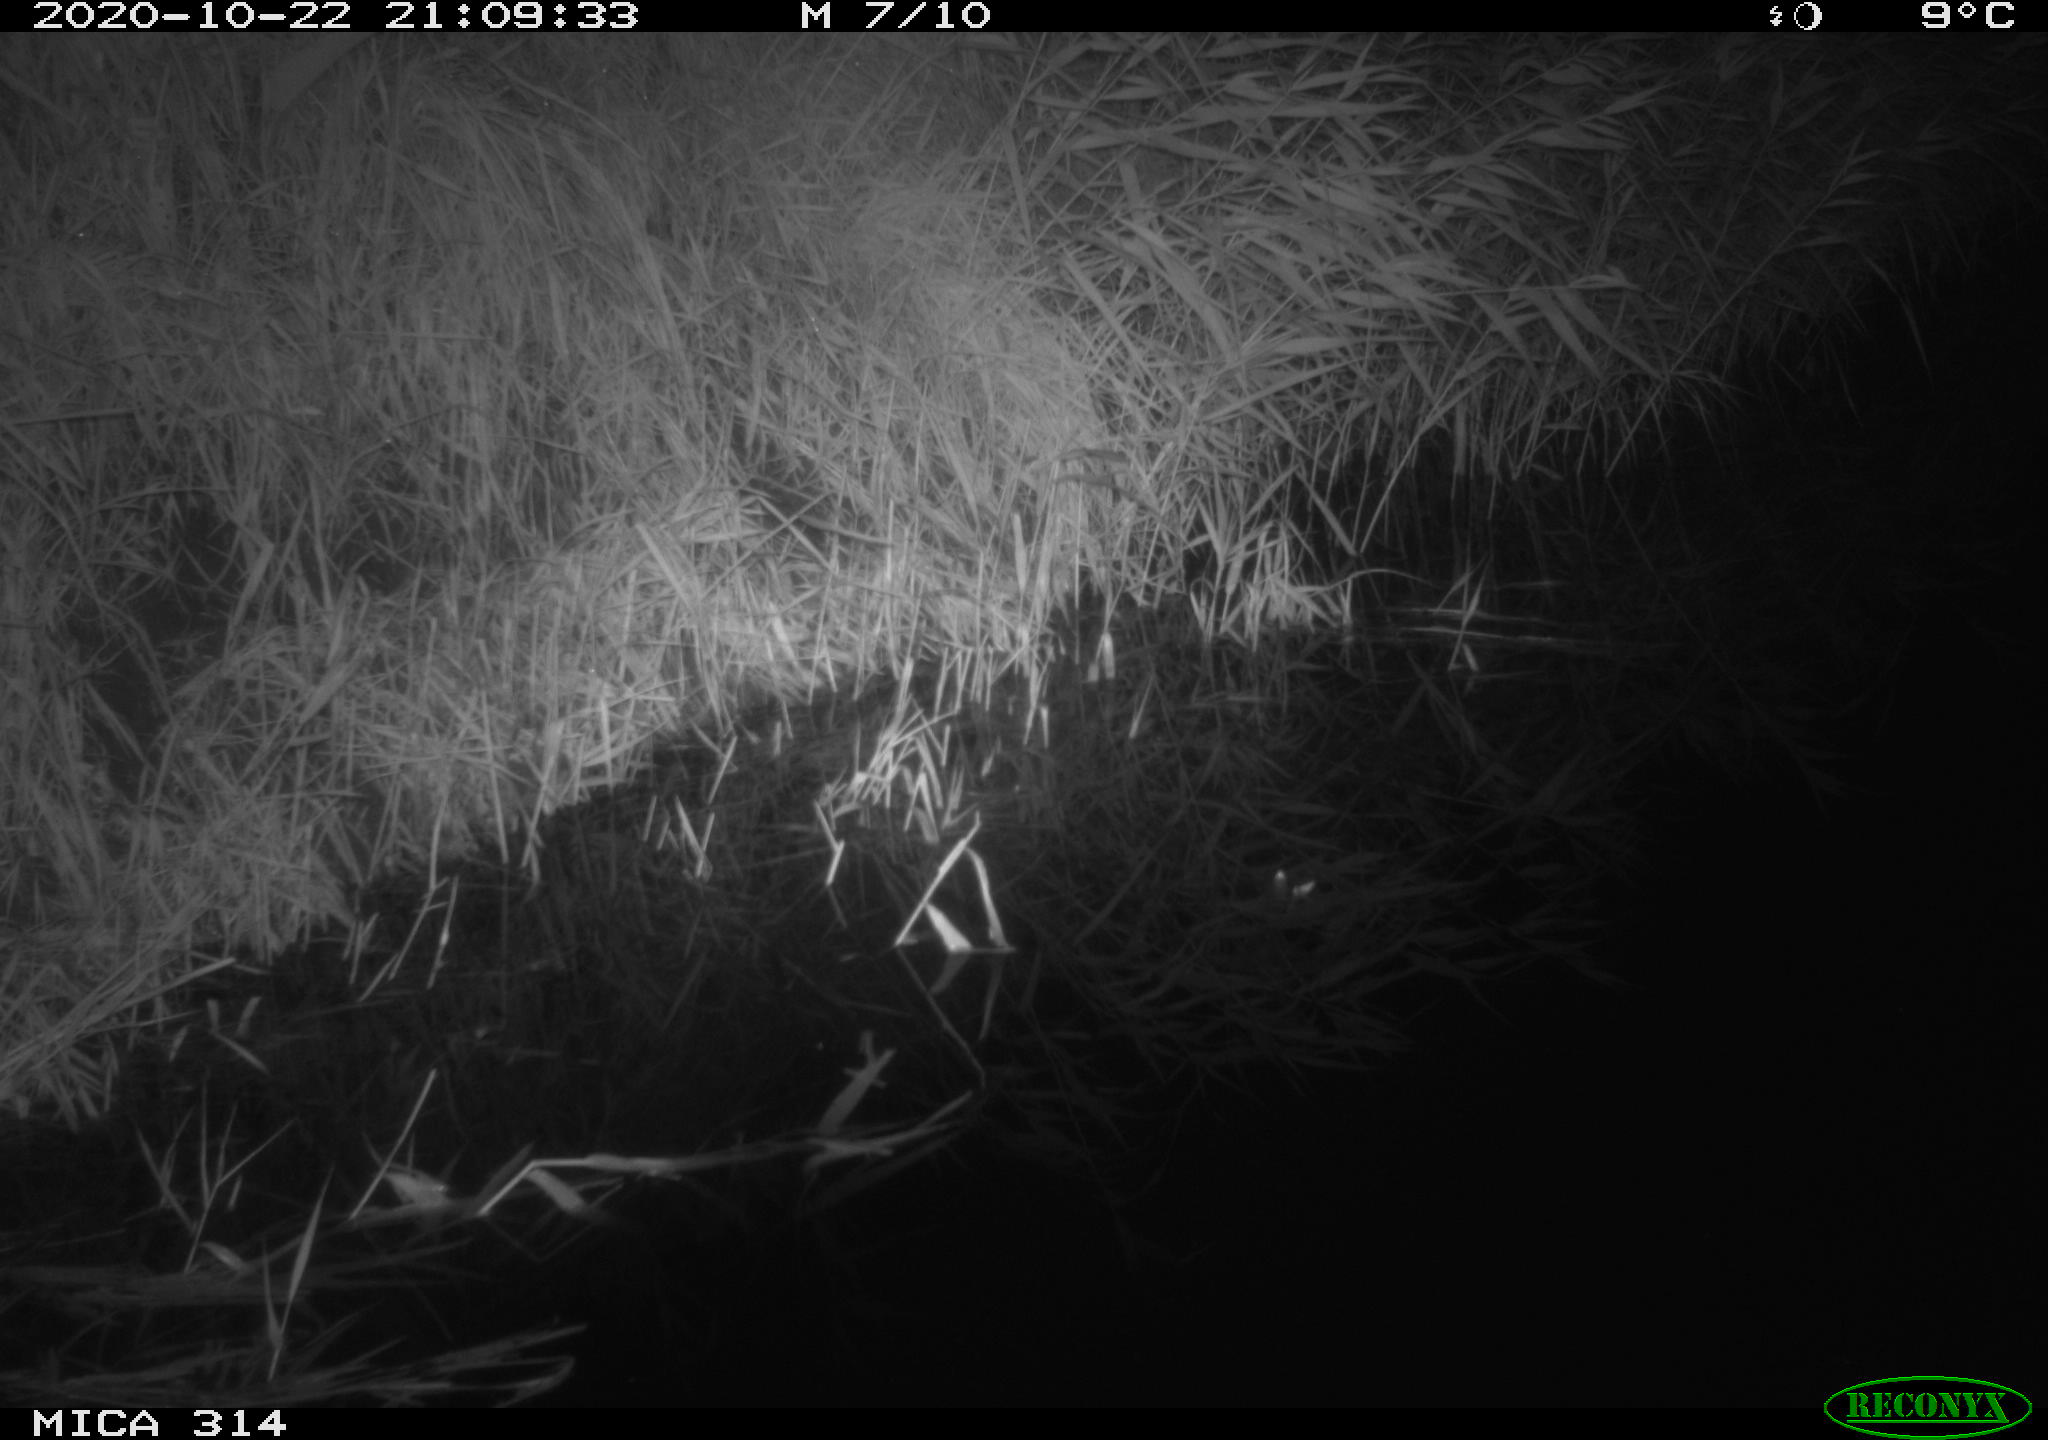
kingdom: Animalia
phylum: Chordata
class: Mammalia
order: Rodentia
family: Muridae
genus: Rattus
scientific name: Rattus norvegicus
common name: Brown rat
